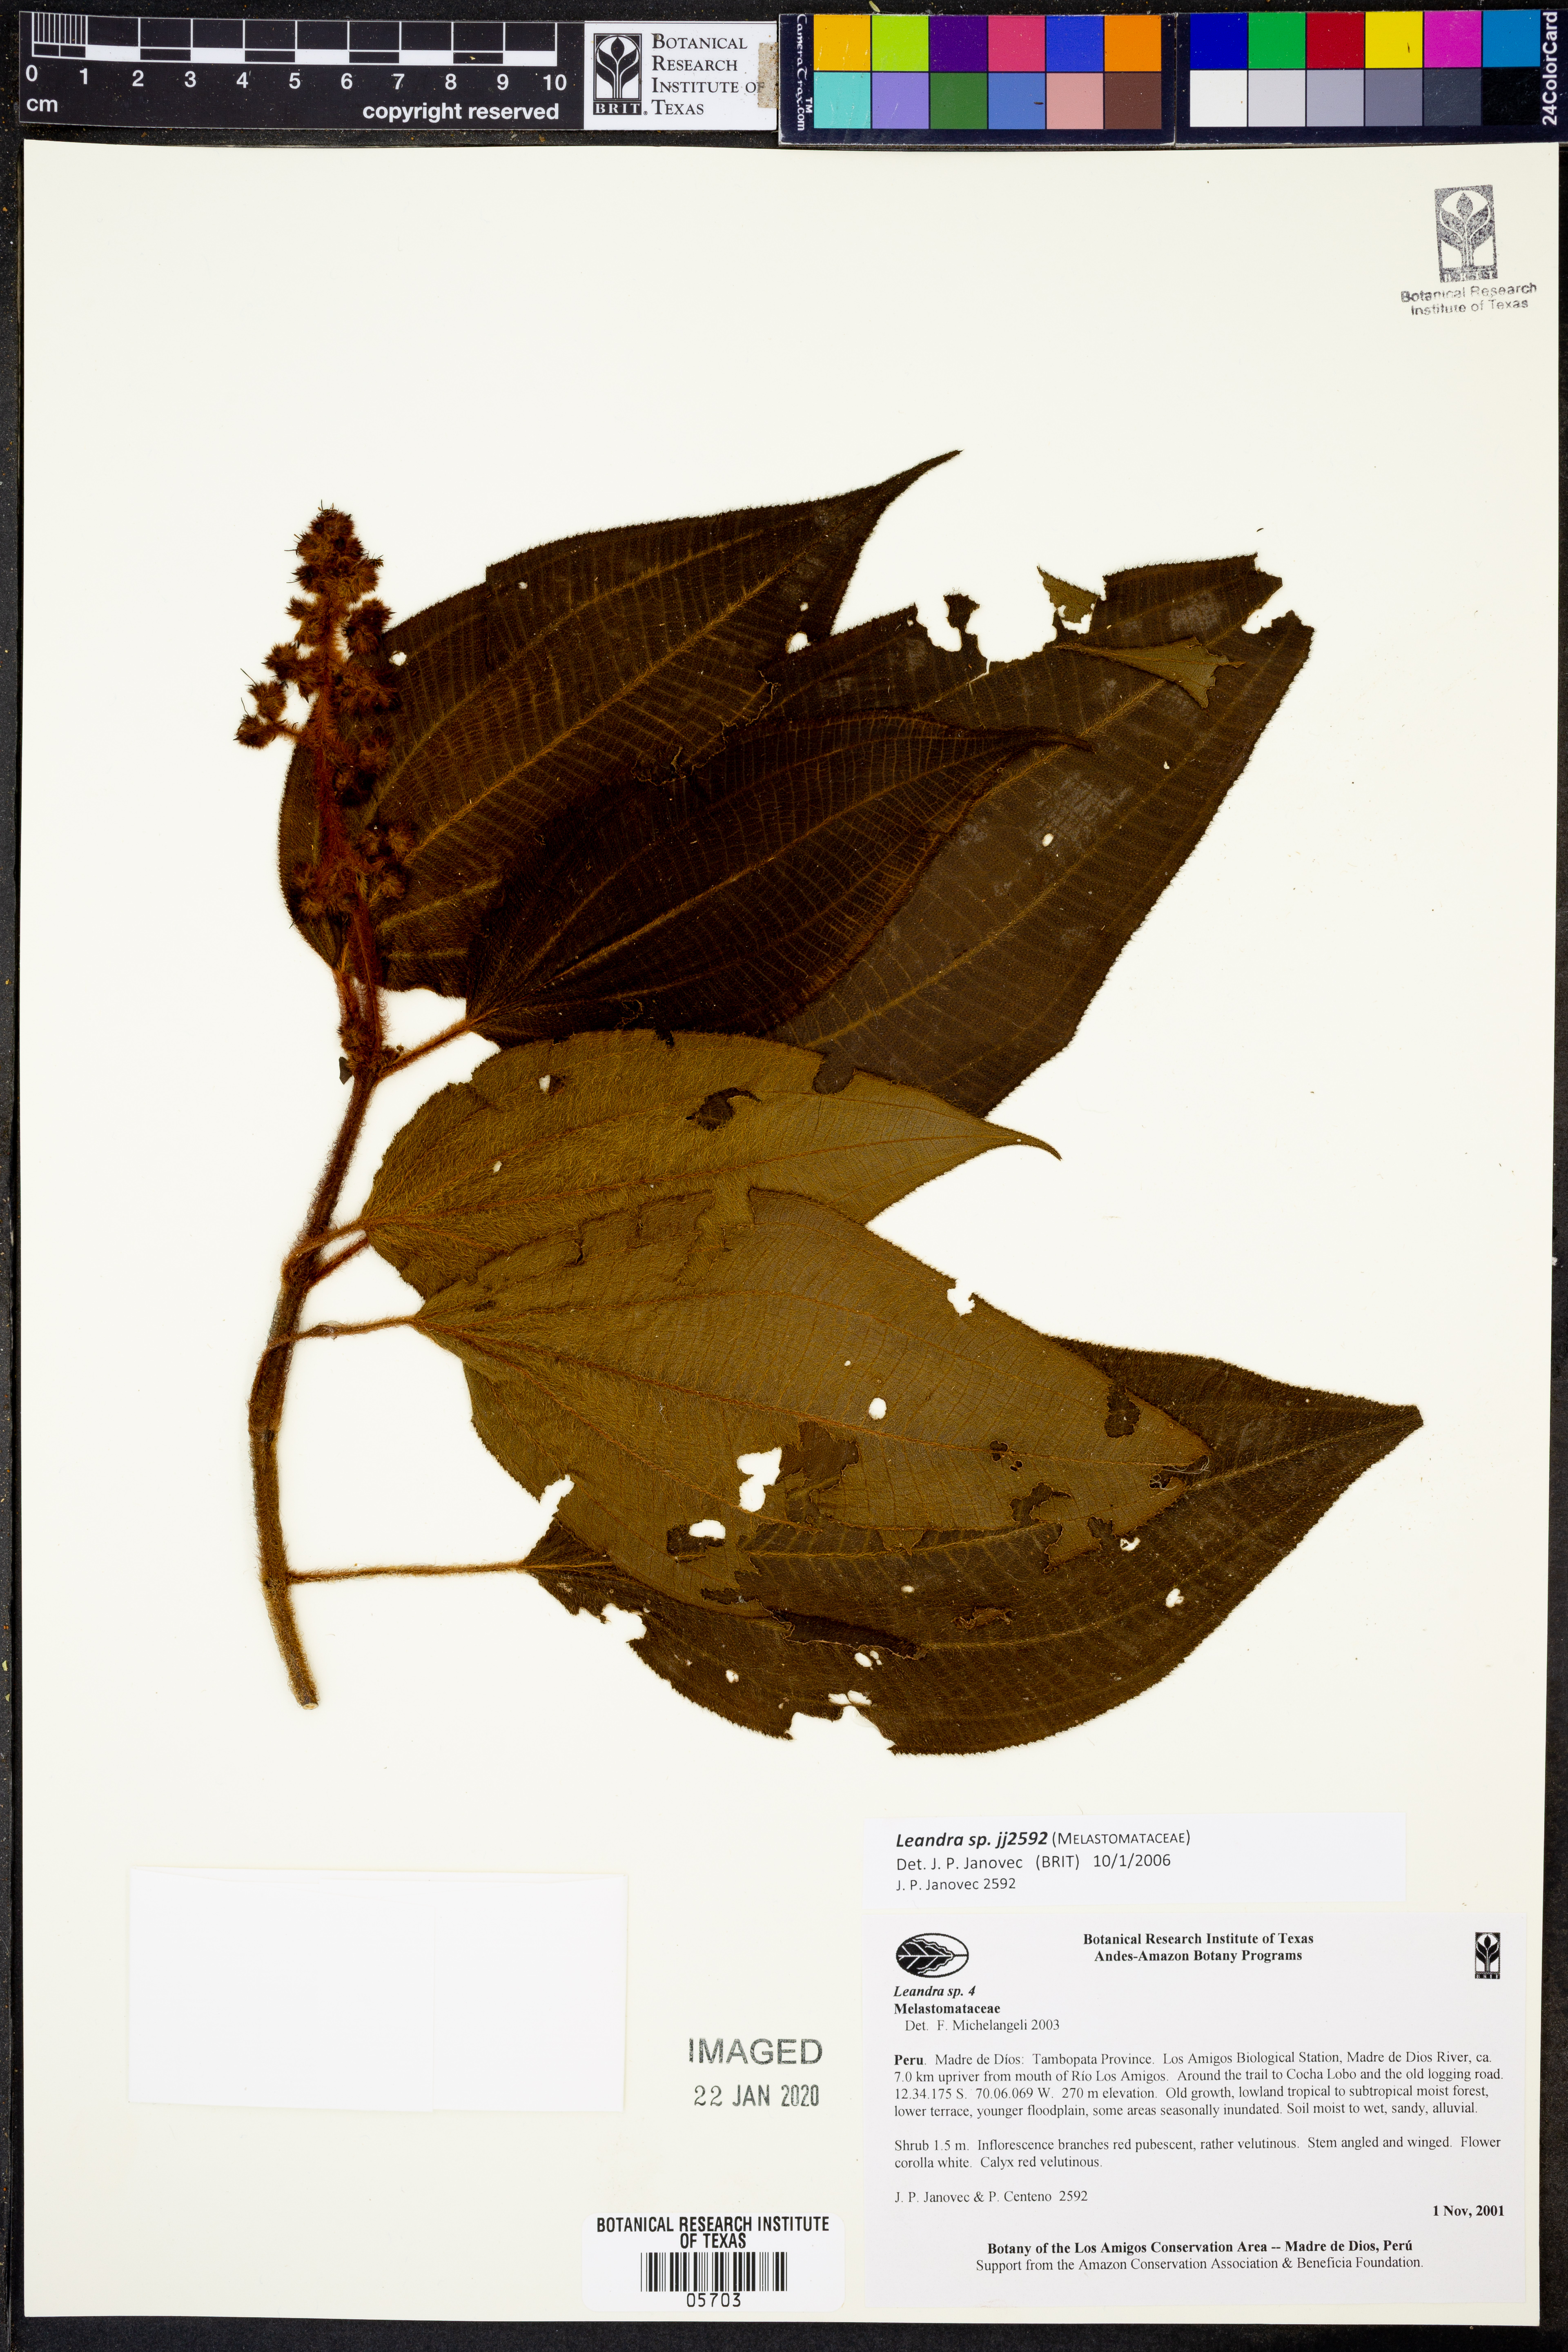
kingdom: Plantae
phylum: Tracheophyta
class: Magnoliopsida
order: Myrtales
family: Melastomataceae
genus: Miconia
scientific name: Miconia
